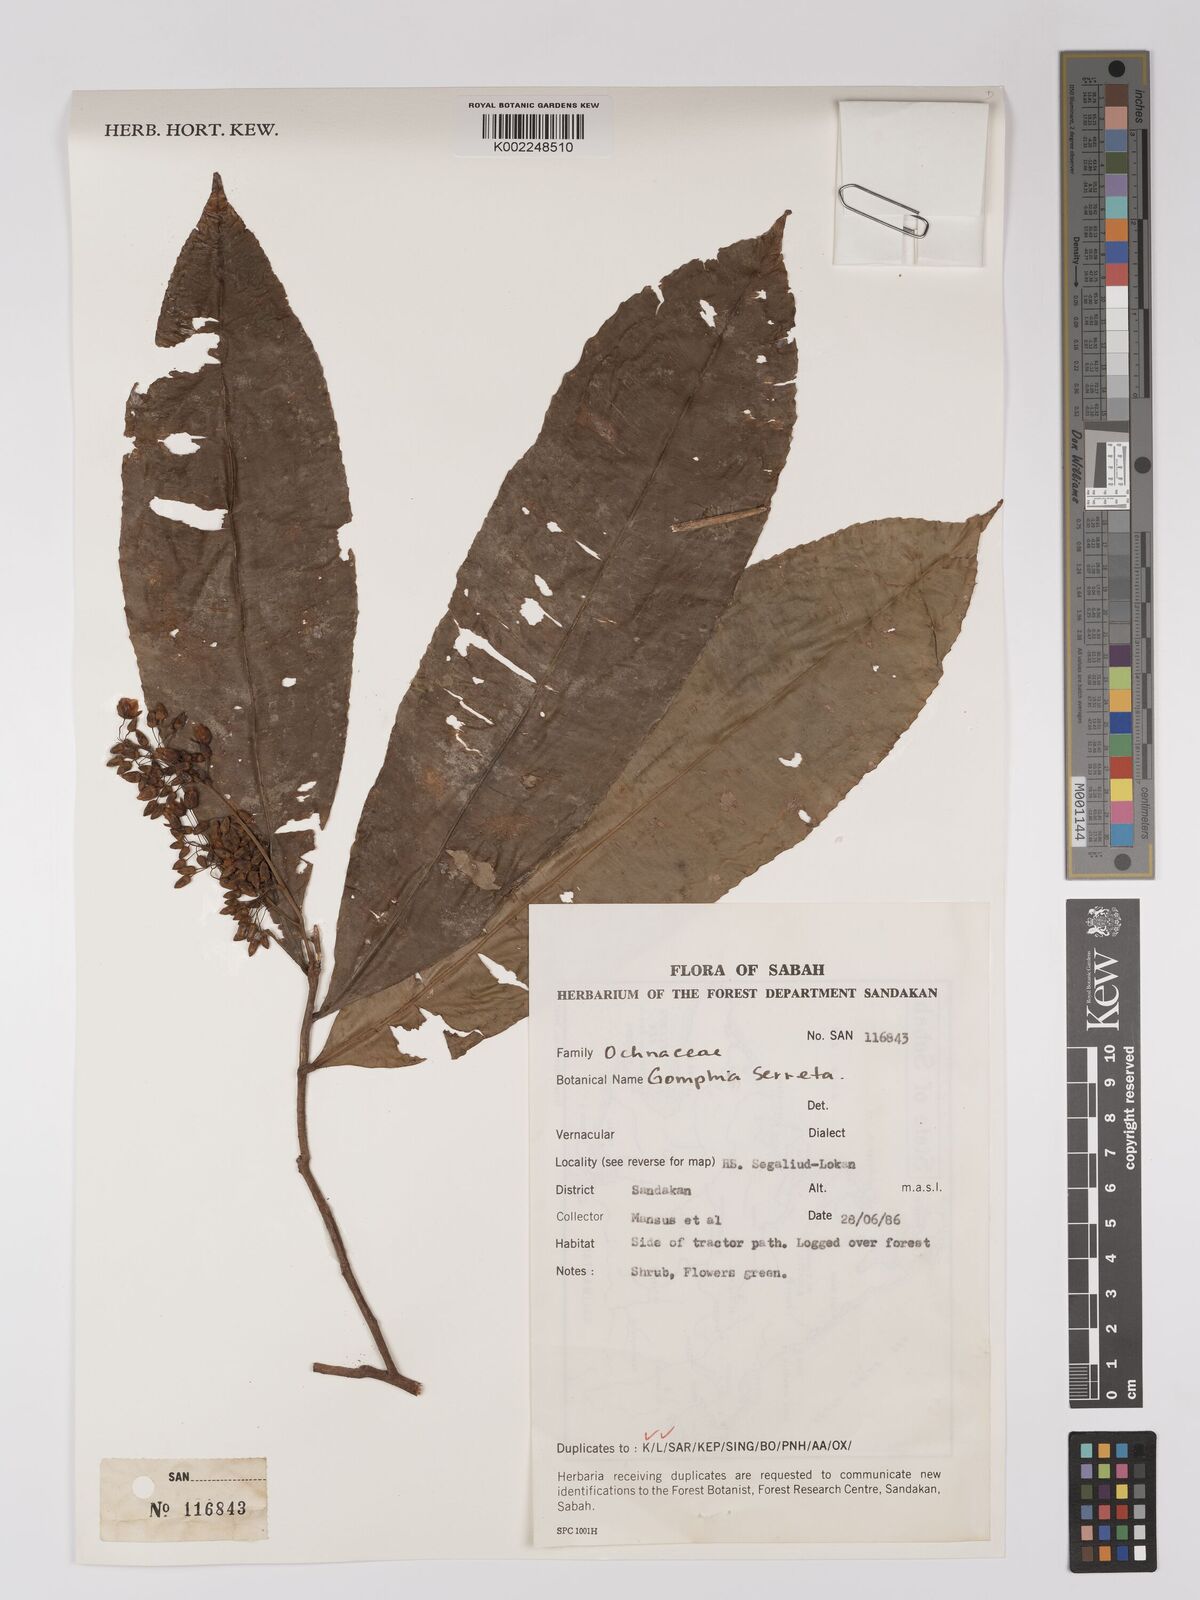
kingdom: Plantae
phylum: Tracheophyta
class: Magnoliopsida
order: Malpighiales
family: Ochnaceae
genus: Gomphia
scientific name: Gomphia serrata
